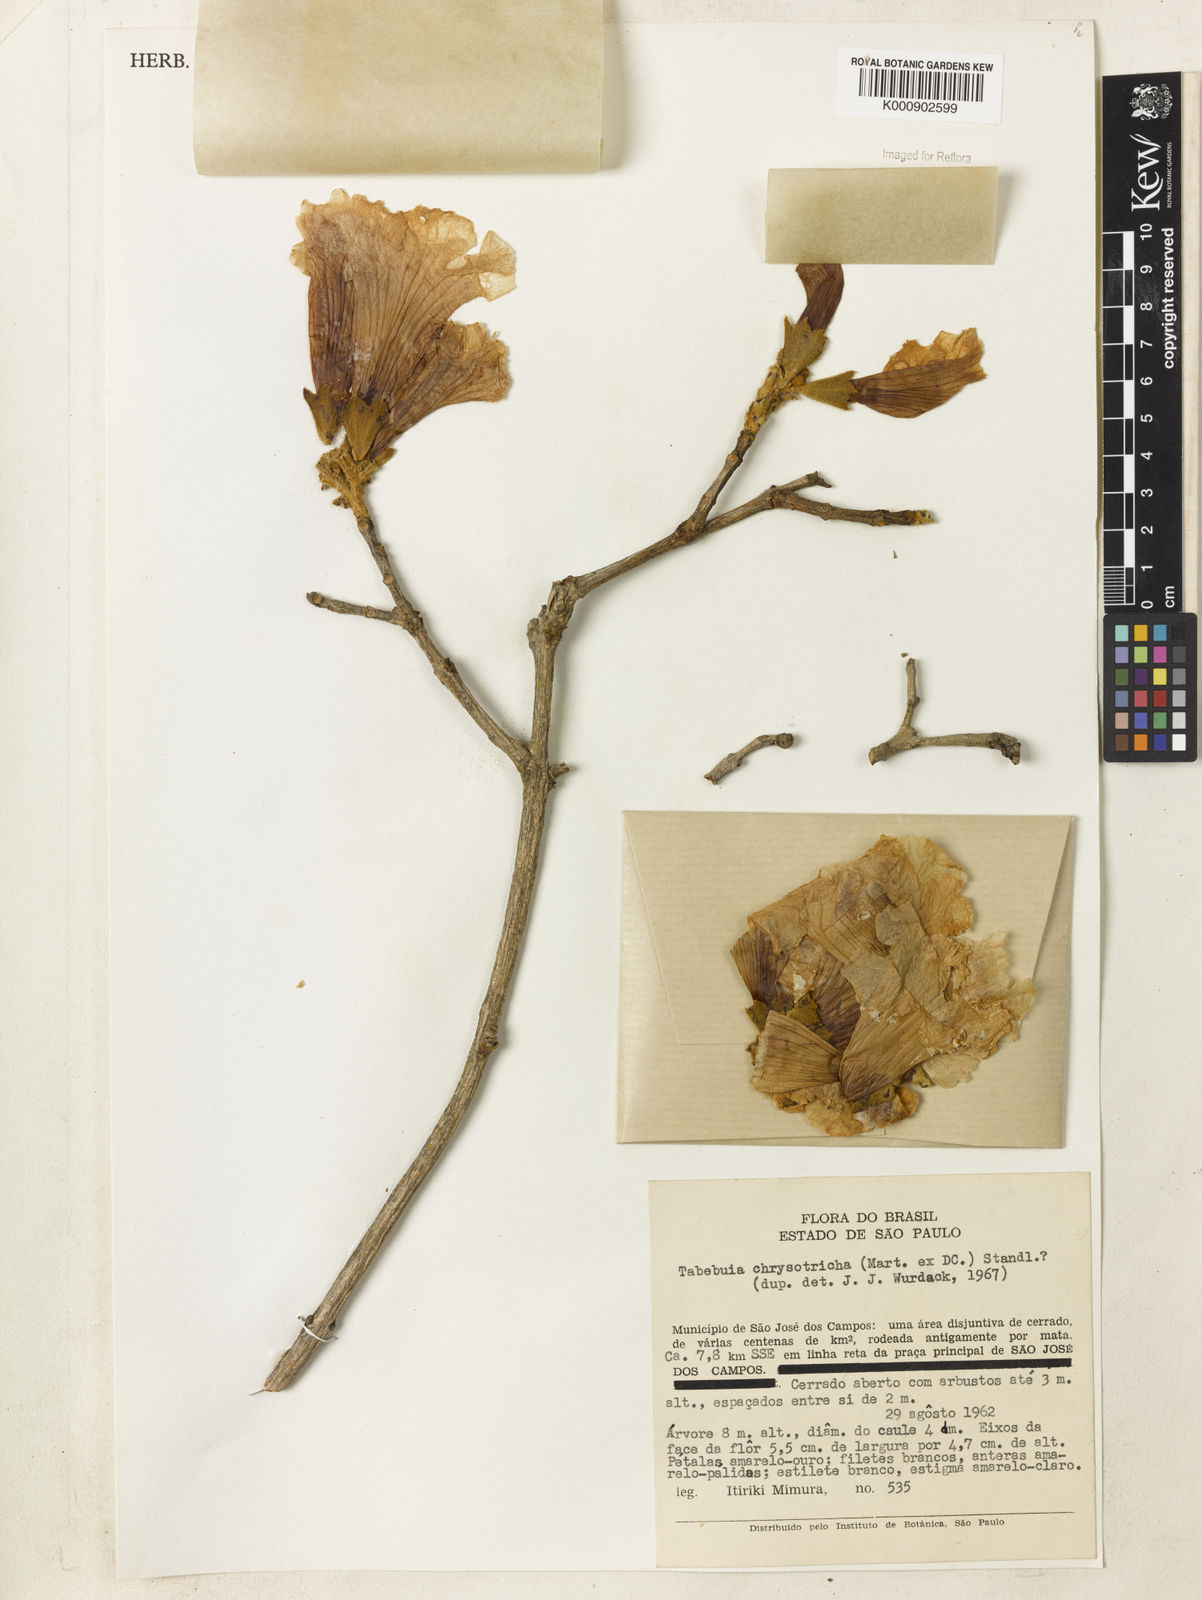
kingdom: Plantae
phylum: Tracheophyta
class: Magnoliopsida
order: Lamiales
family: Bignoniaceae
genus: Handroanthus
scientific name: Handroanthus chrysotrichus
